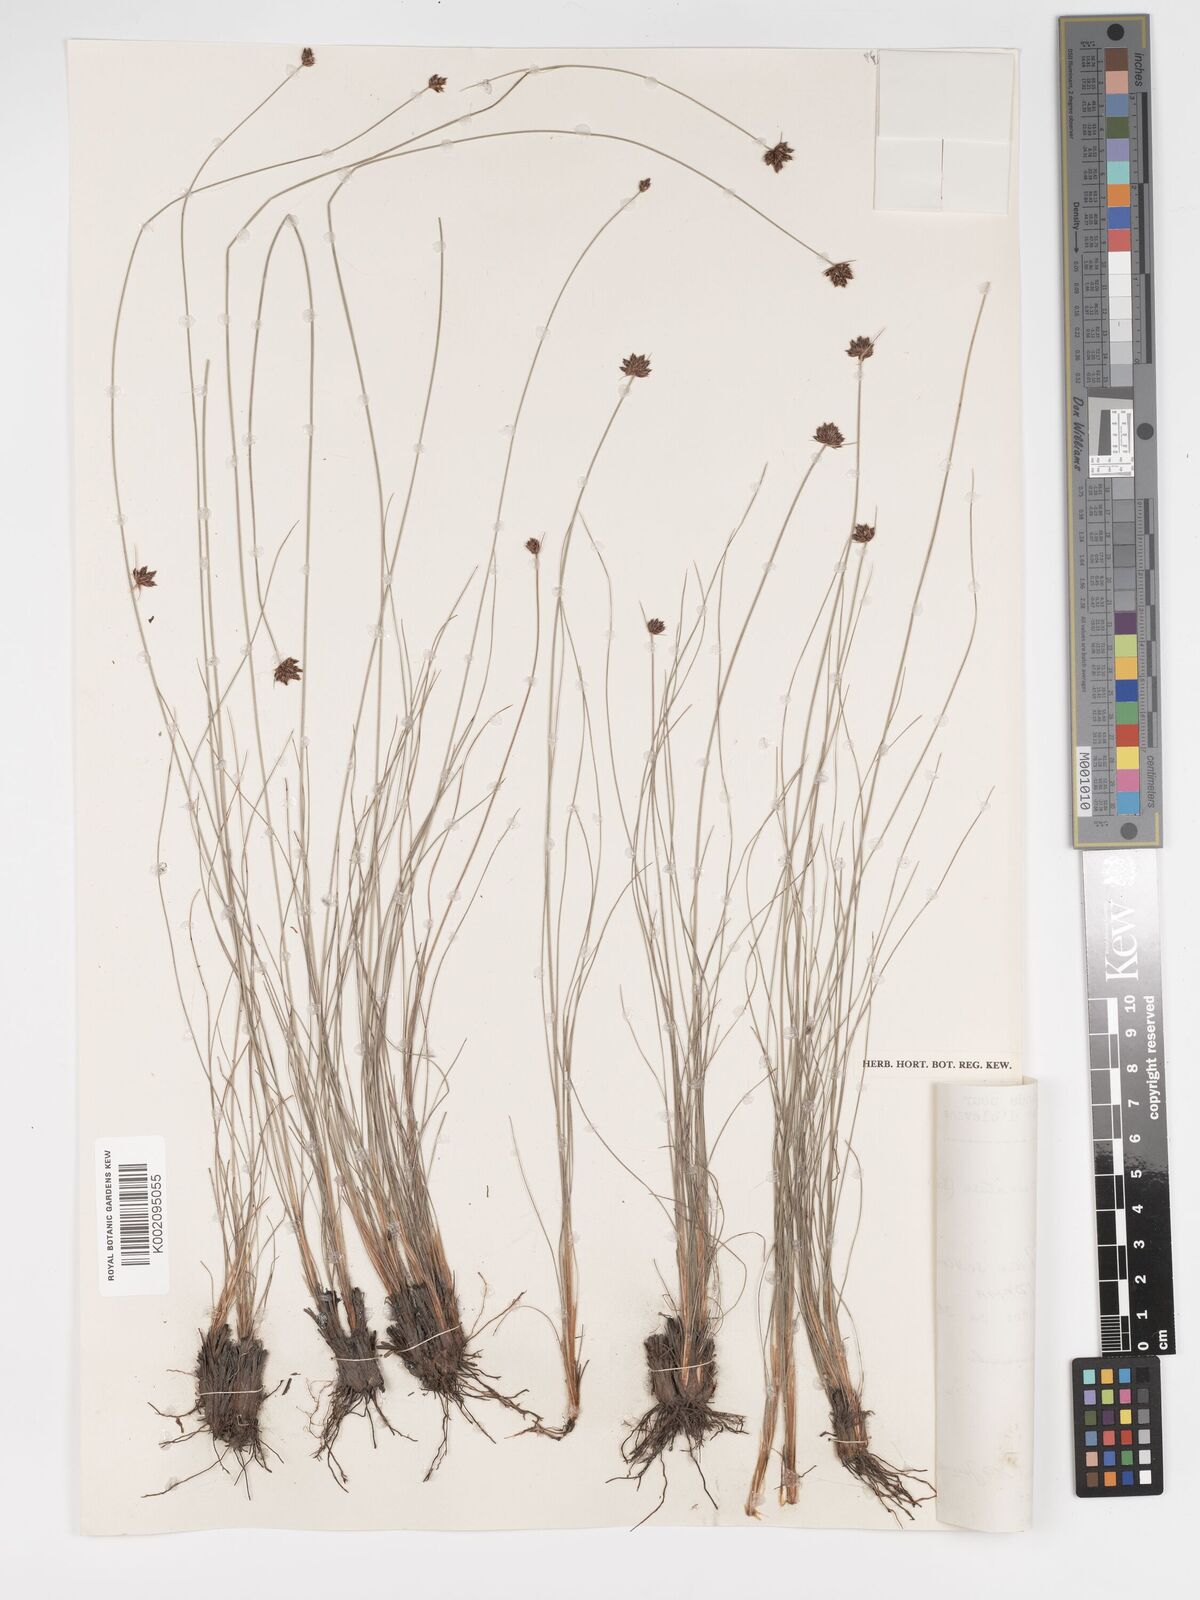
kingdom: Plantae
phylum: Tracheophyta
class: Liliopsida
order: Poales
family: Cyperaceae
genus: Bulbostylis
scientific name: Bulbostylis scabricaulis
